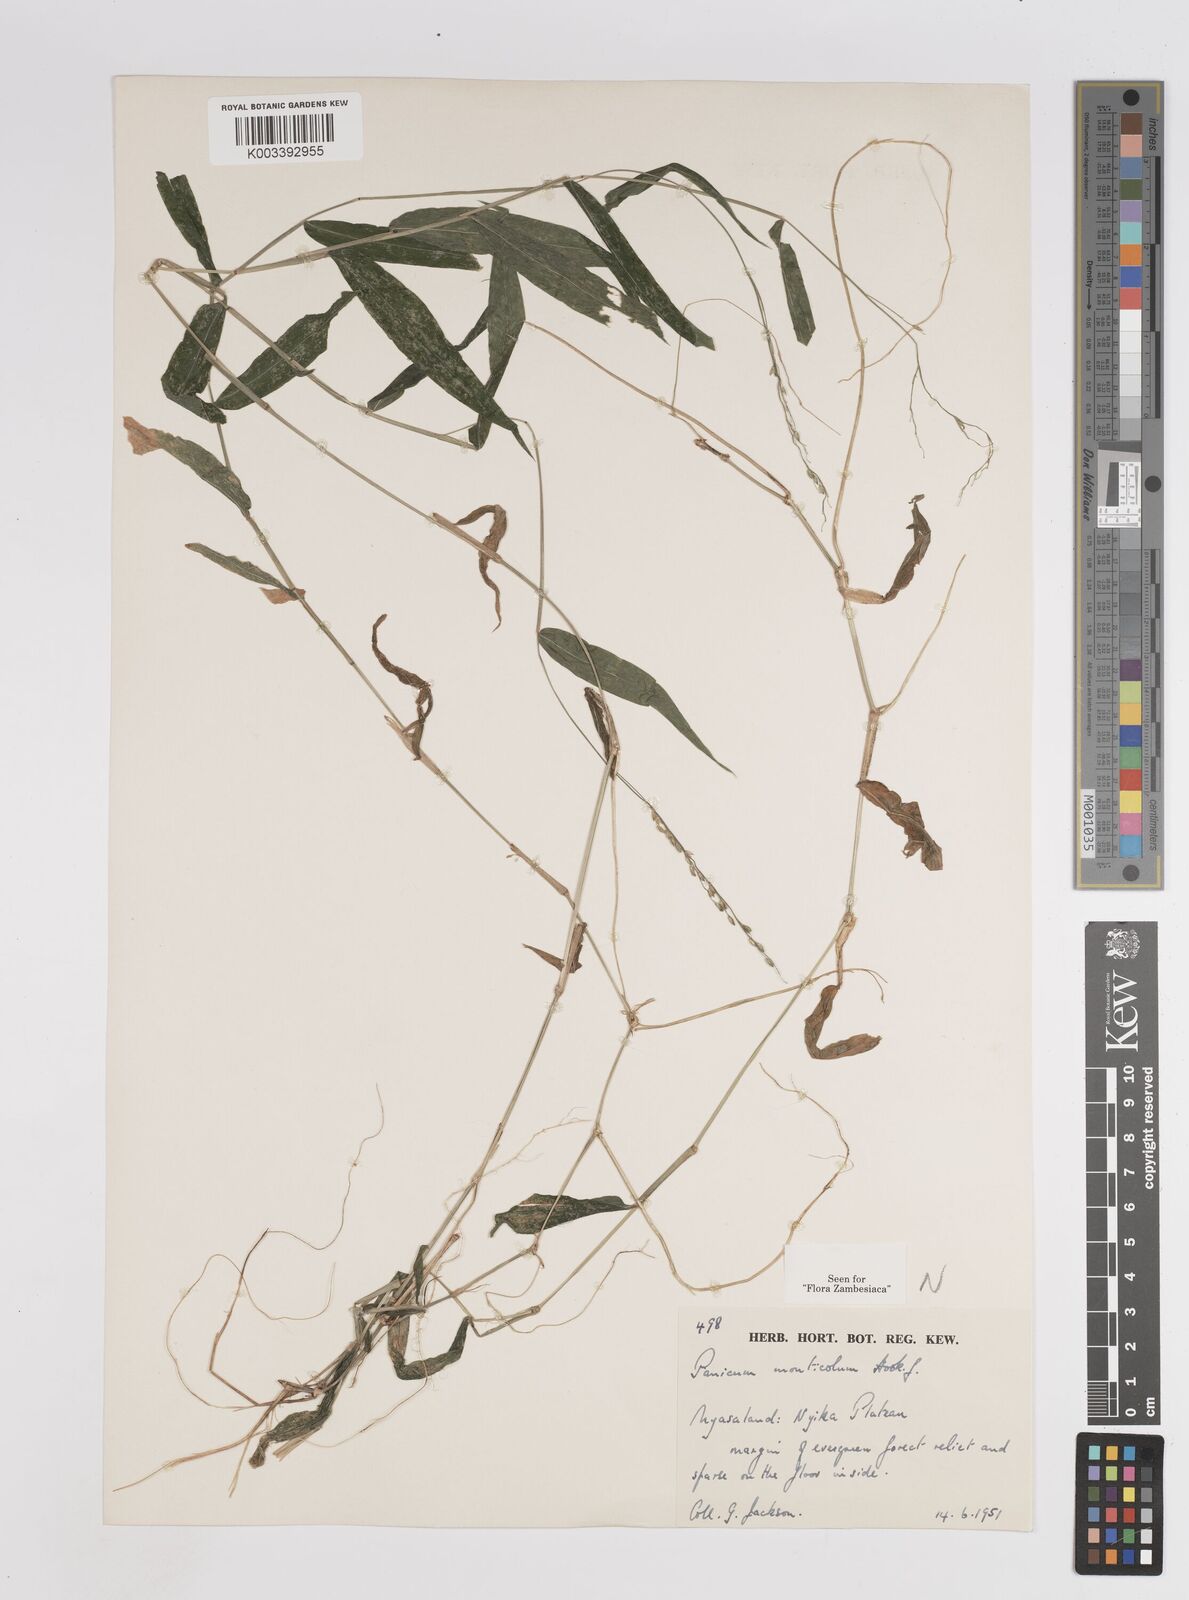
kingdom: Plantae
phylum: Tracheophyta
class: Liliopsida
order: Poales
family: Poaceae
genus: Panicum
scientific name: Panicum monticola
